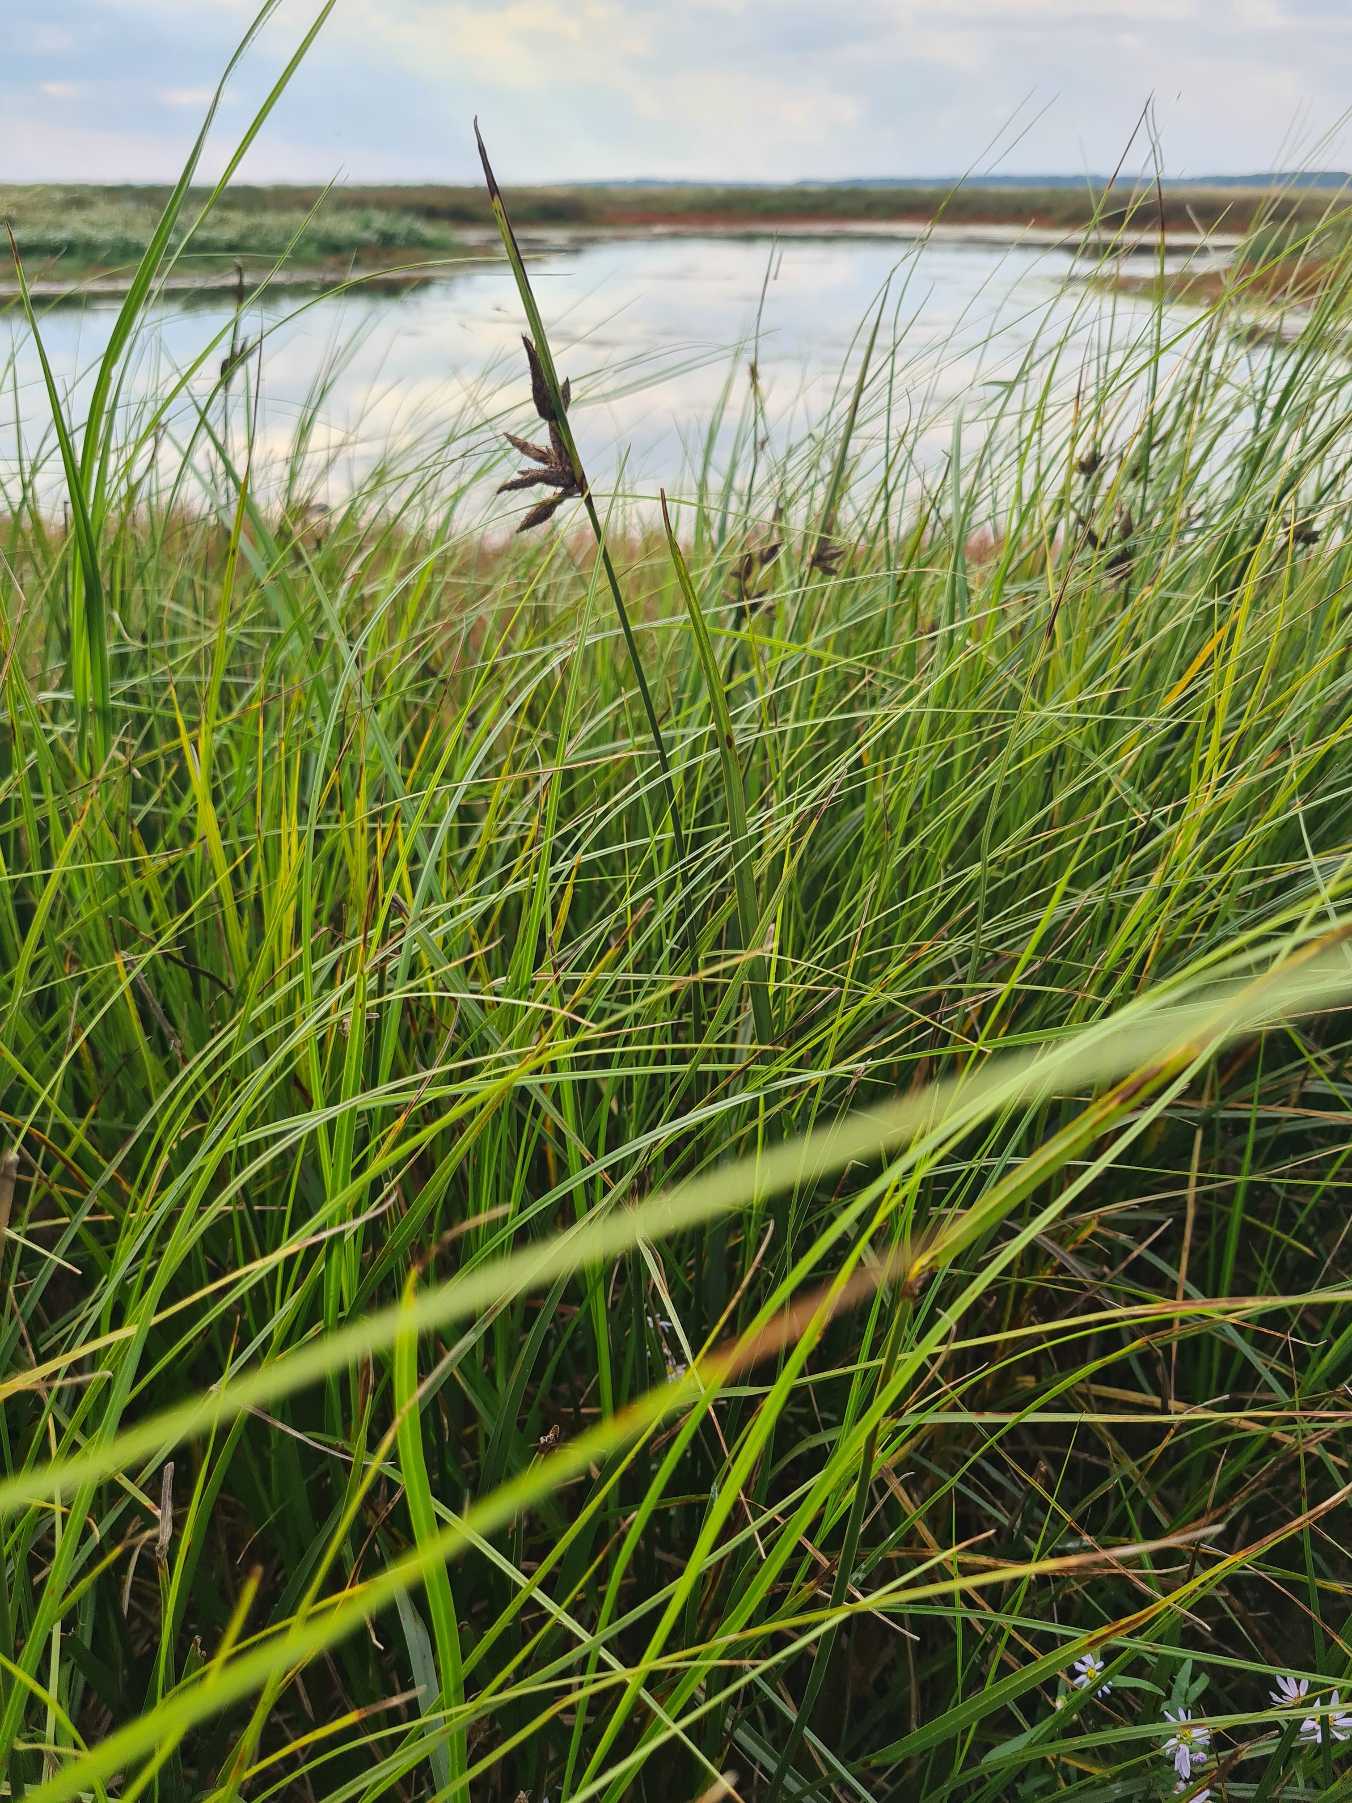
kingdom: Plantae
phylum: Tracheophyta
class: Liliopsida
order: Poales
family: Cyperaceae
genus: Bolboschoenus
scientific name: Bolboschoenus maritimus
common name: Strand-kogleaks
